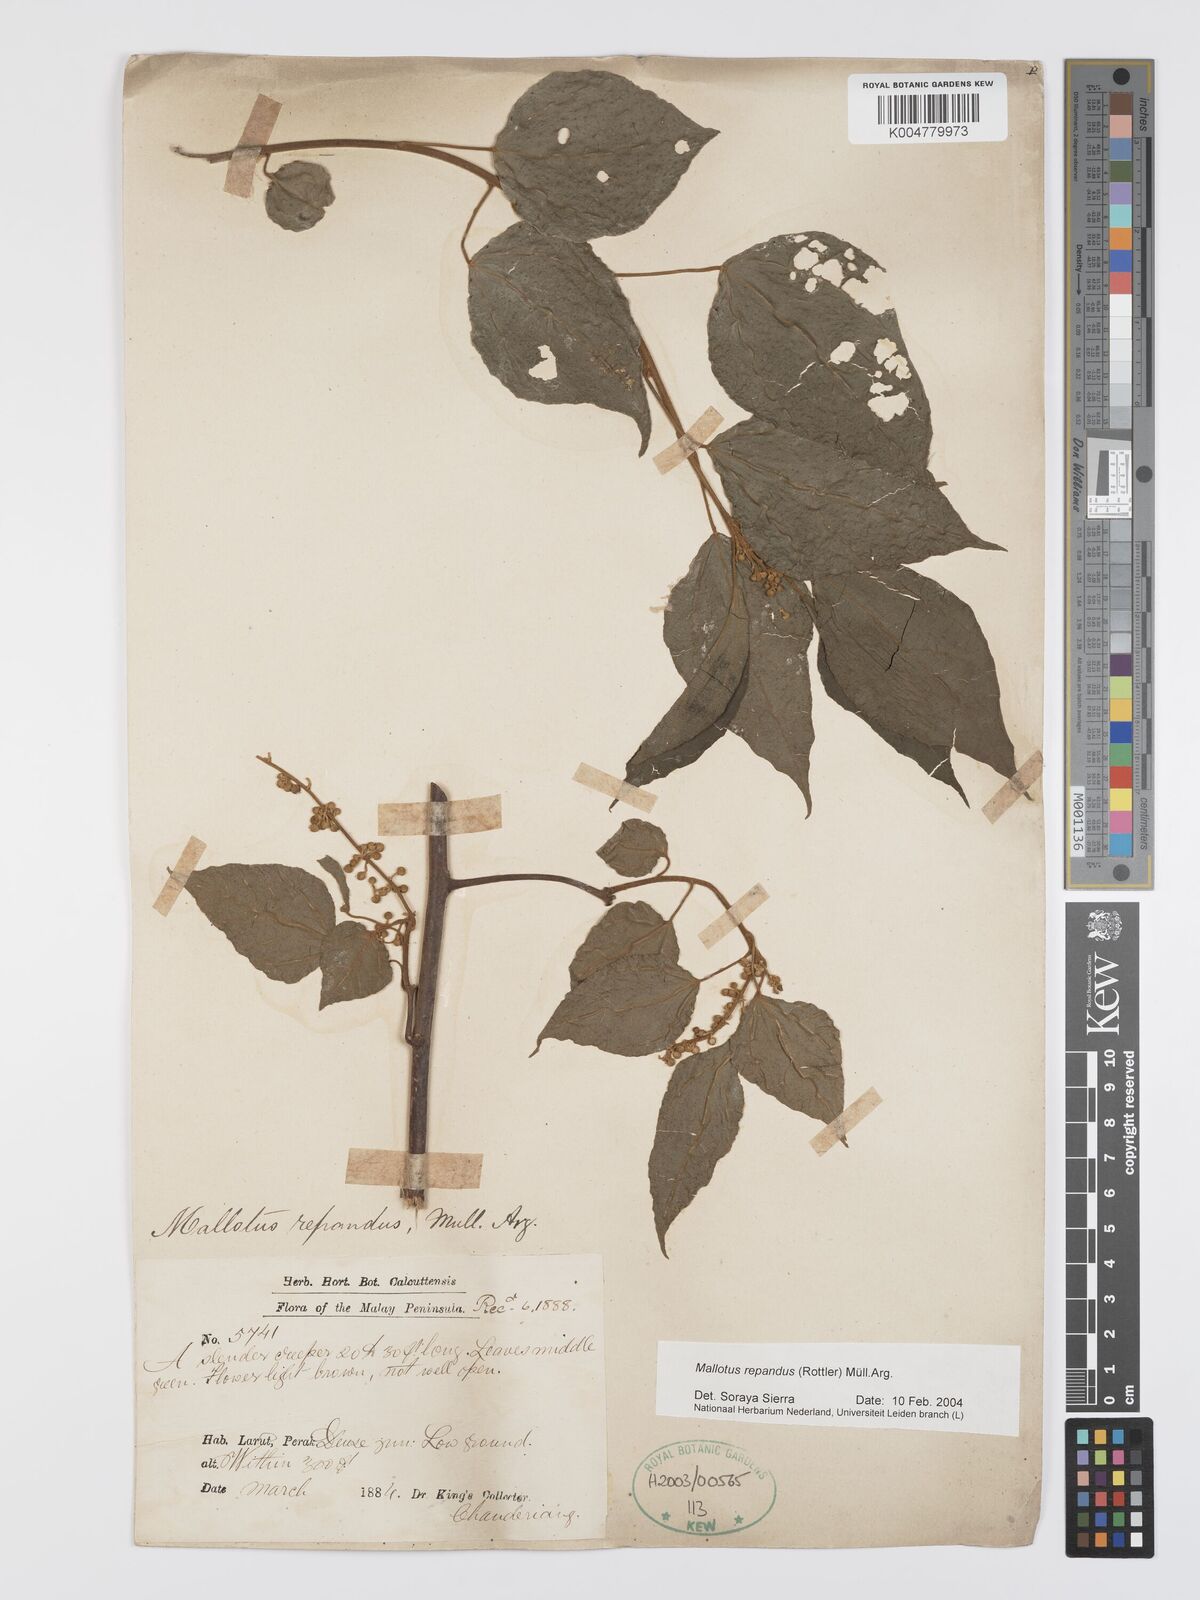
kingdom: Plantae
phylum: Tracheophyta
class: Magnoliopsida
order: Malpighiales
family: Euphorbiaceae
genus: Mallotus
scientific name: Mallotus repandus
